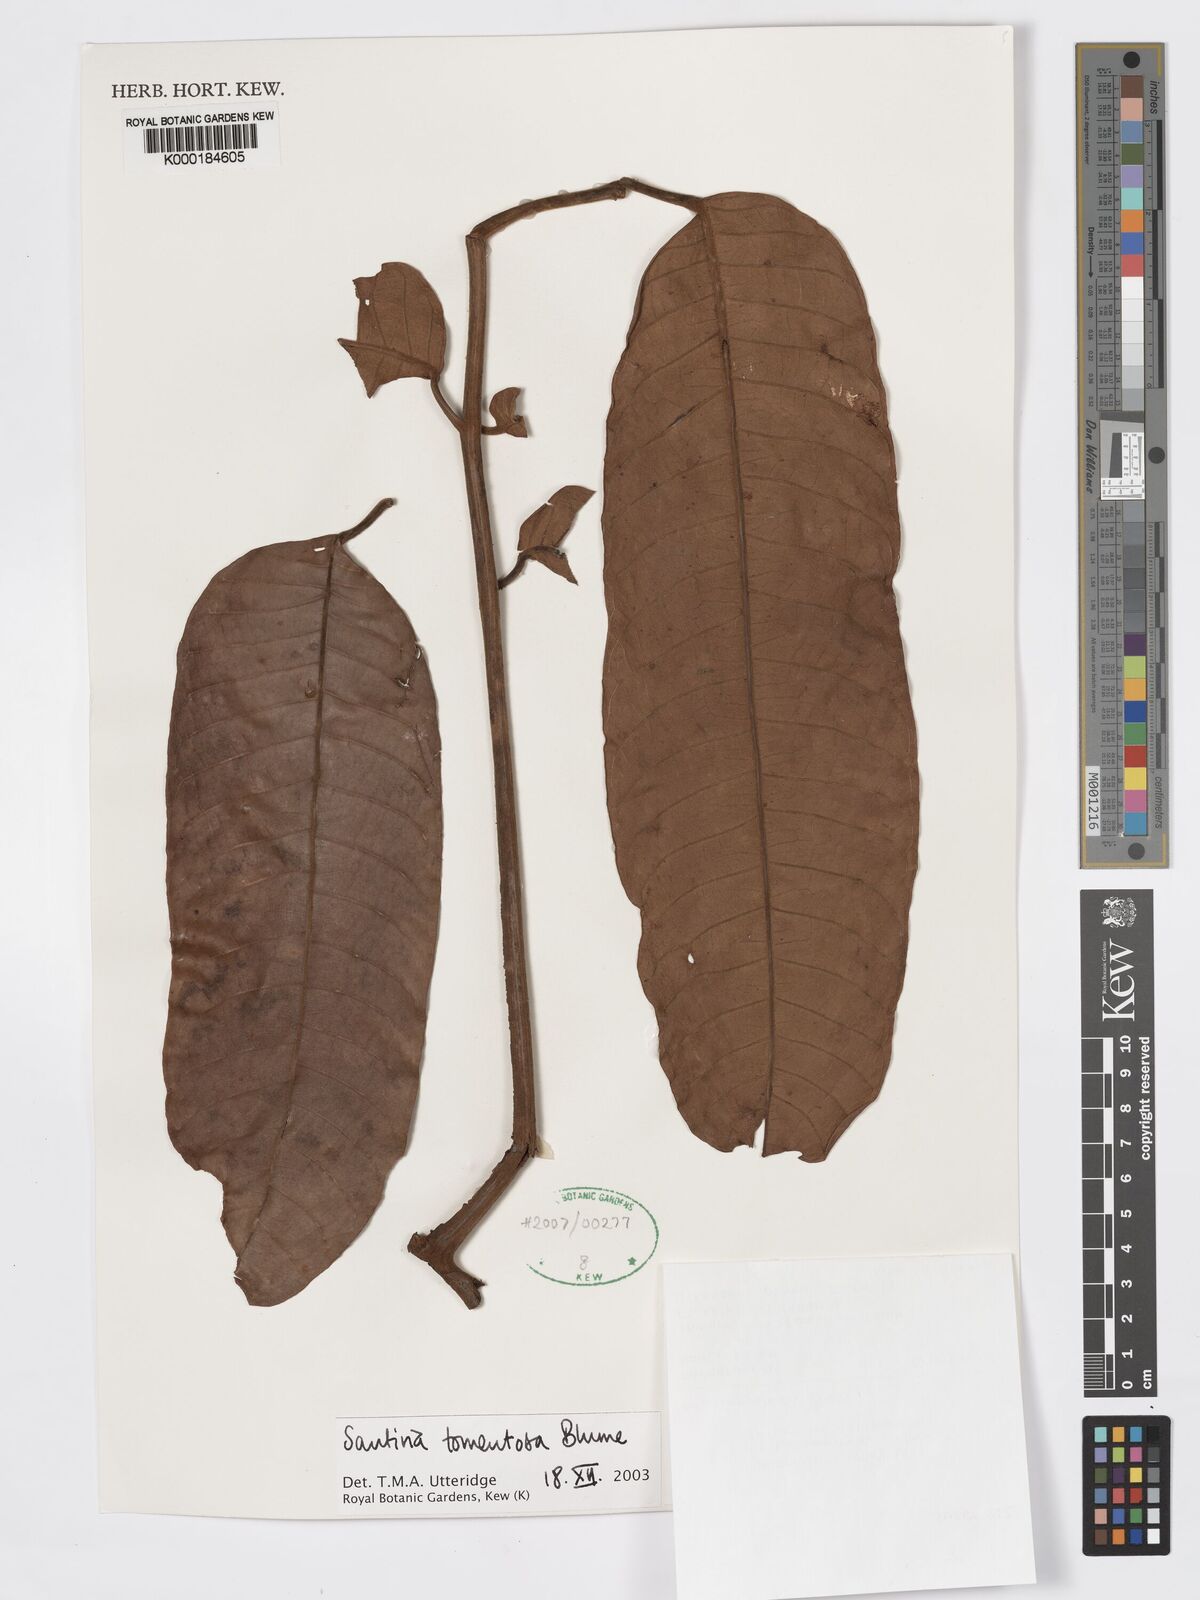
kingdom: Plantae
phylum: Tracheophyta
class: Magnoliopsida
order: Sapindales
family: Burseraceae
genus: Santiria
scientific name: Santiria tomentosa
